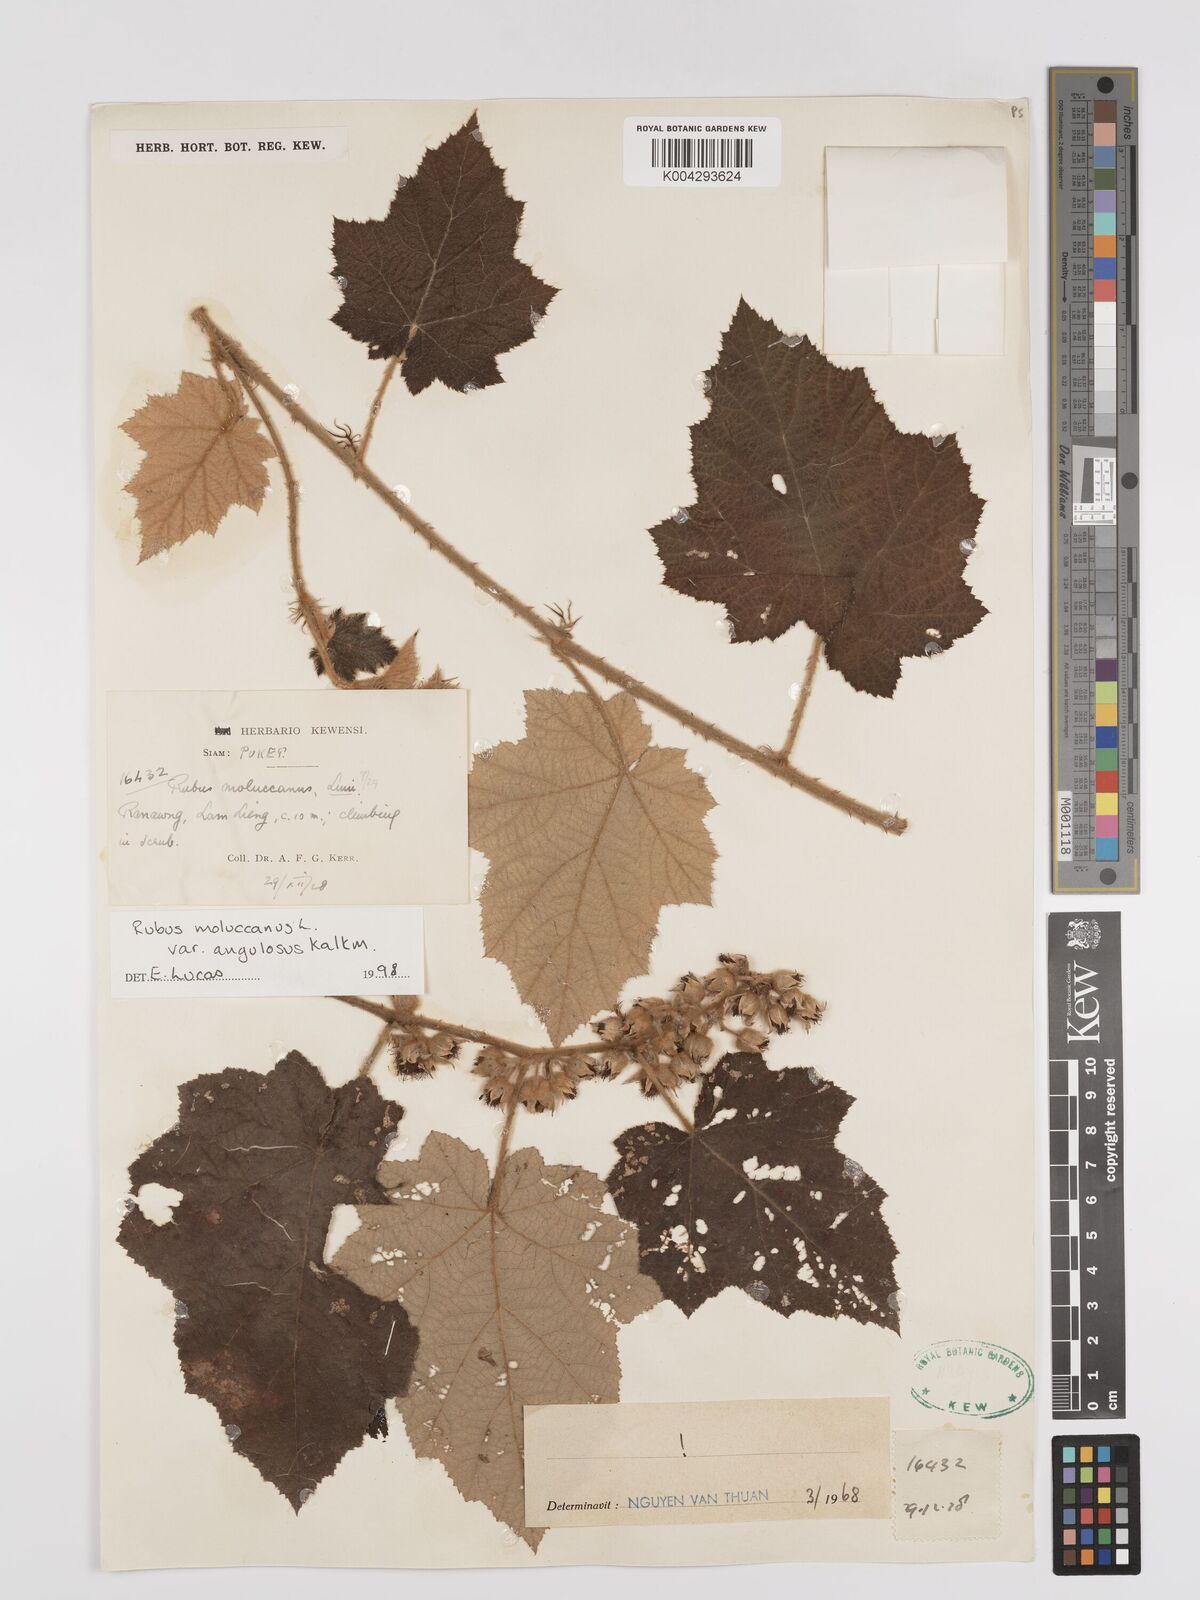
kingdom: Plantae
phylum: Tracheophyta
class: Magnoliopsida
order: Rosales
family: Rosaceae
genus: Rubus
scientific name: Rubus moluccanus
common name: Wild raspberry
